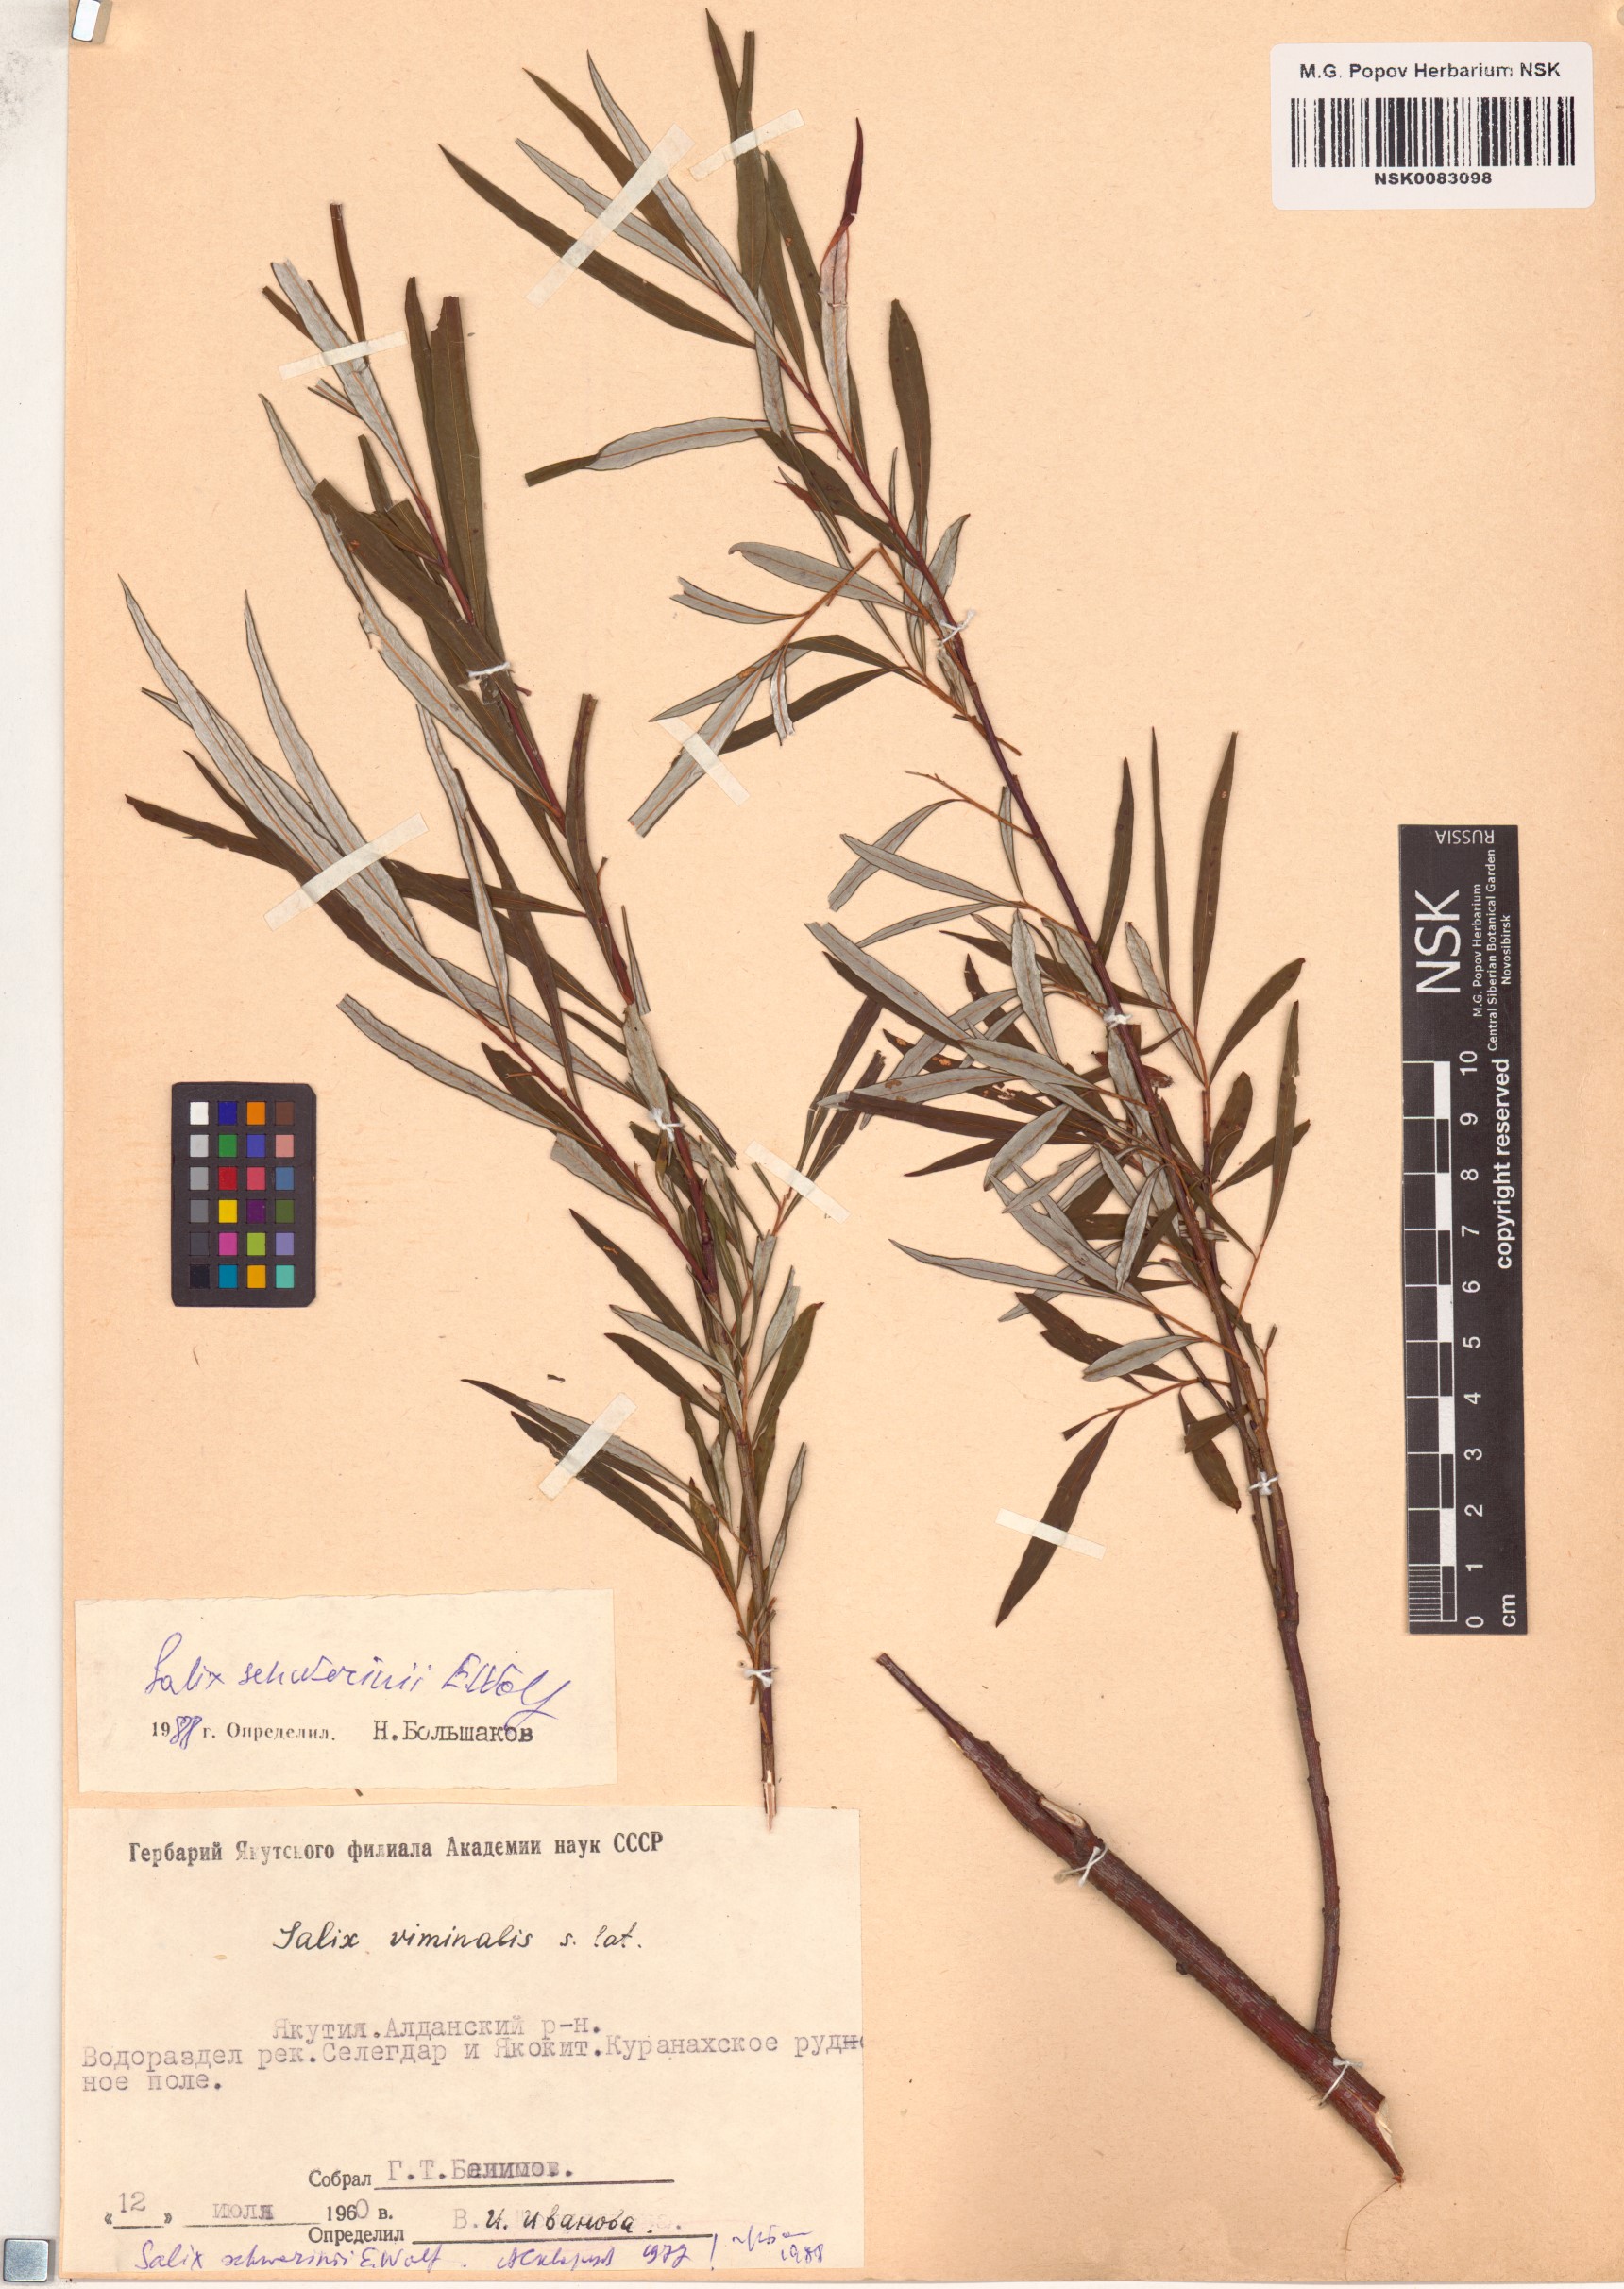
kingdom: Plantae
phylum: Tracheophyta
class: Magnoliopsida
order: Malpighiales
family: Salicaceae
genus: Salix
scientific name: Salix schwerinii
